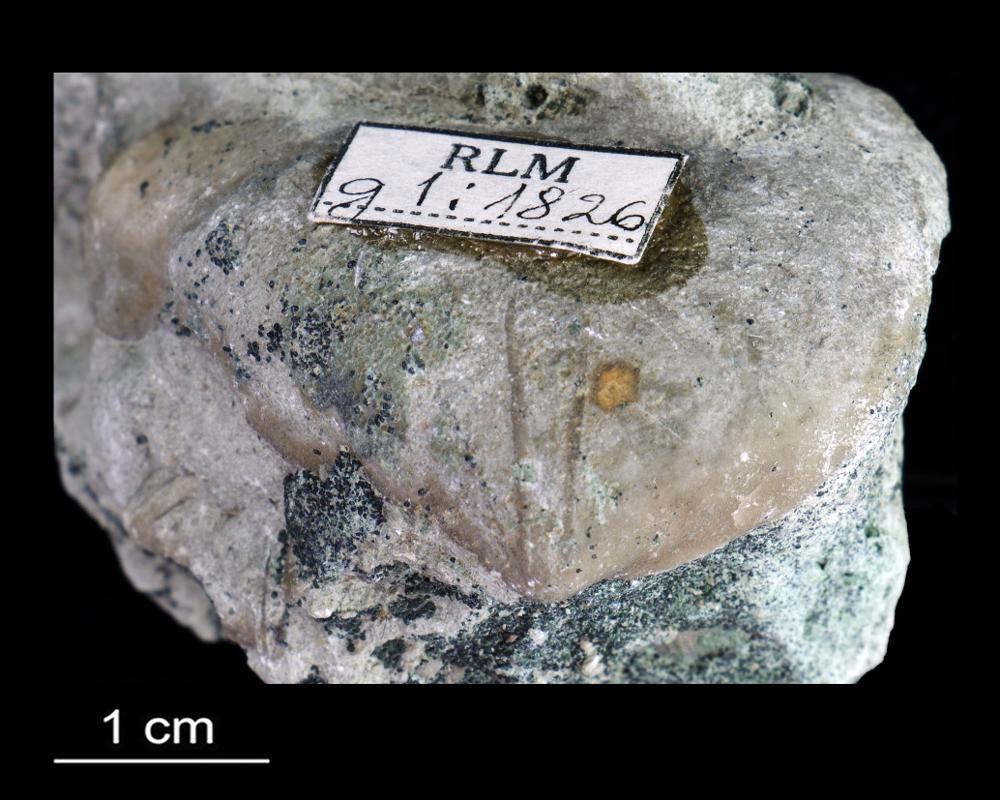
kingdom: Animalia
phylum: Brachiopoda
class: Rhynchonellata
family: Porambonitidae
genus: Porambonites
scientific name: Porambonites
